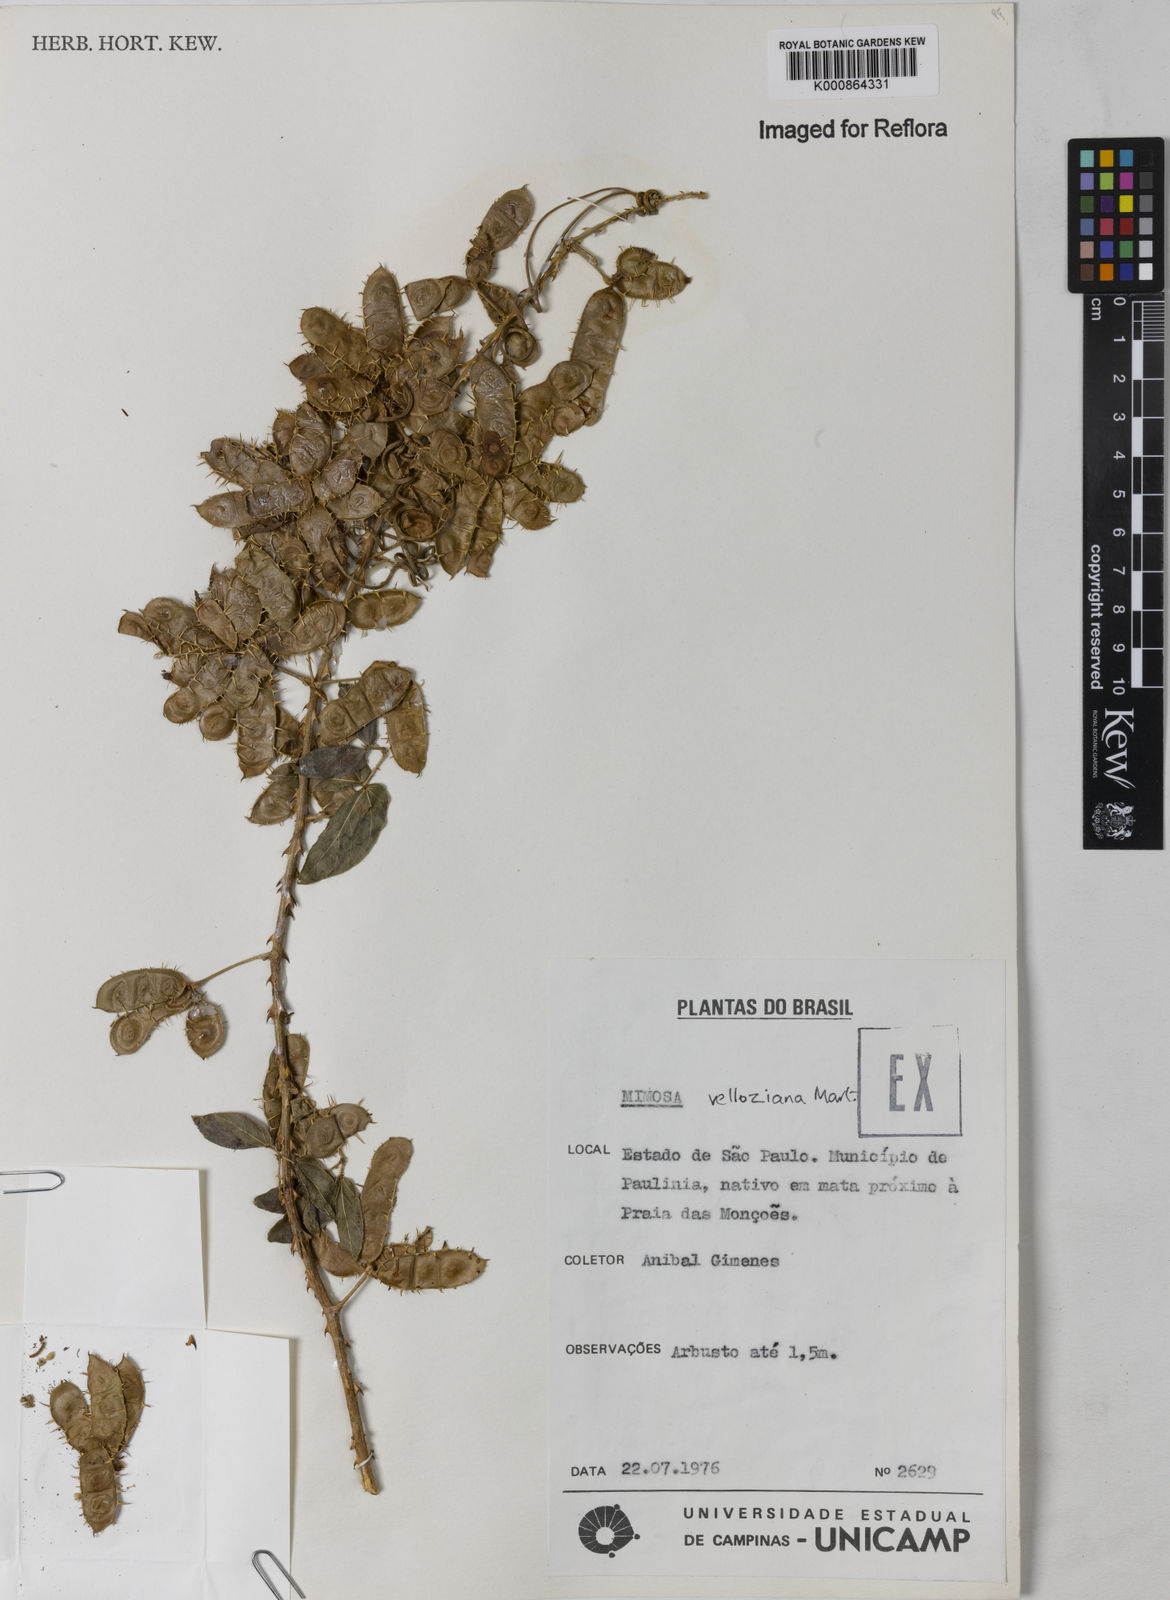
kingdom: Plantae
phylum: Tracheophyta
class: Magnoliopsida
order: Fabales
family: Fabaceae
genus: Mimosa
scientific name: Mimosa velloziana
